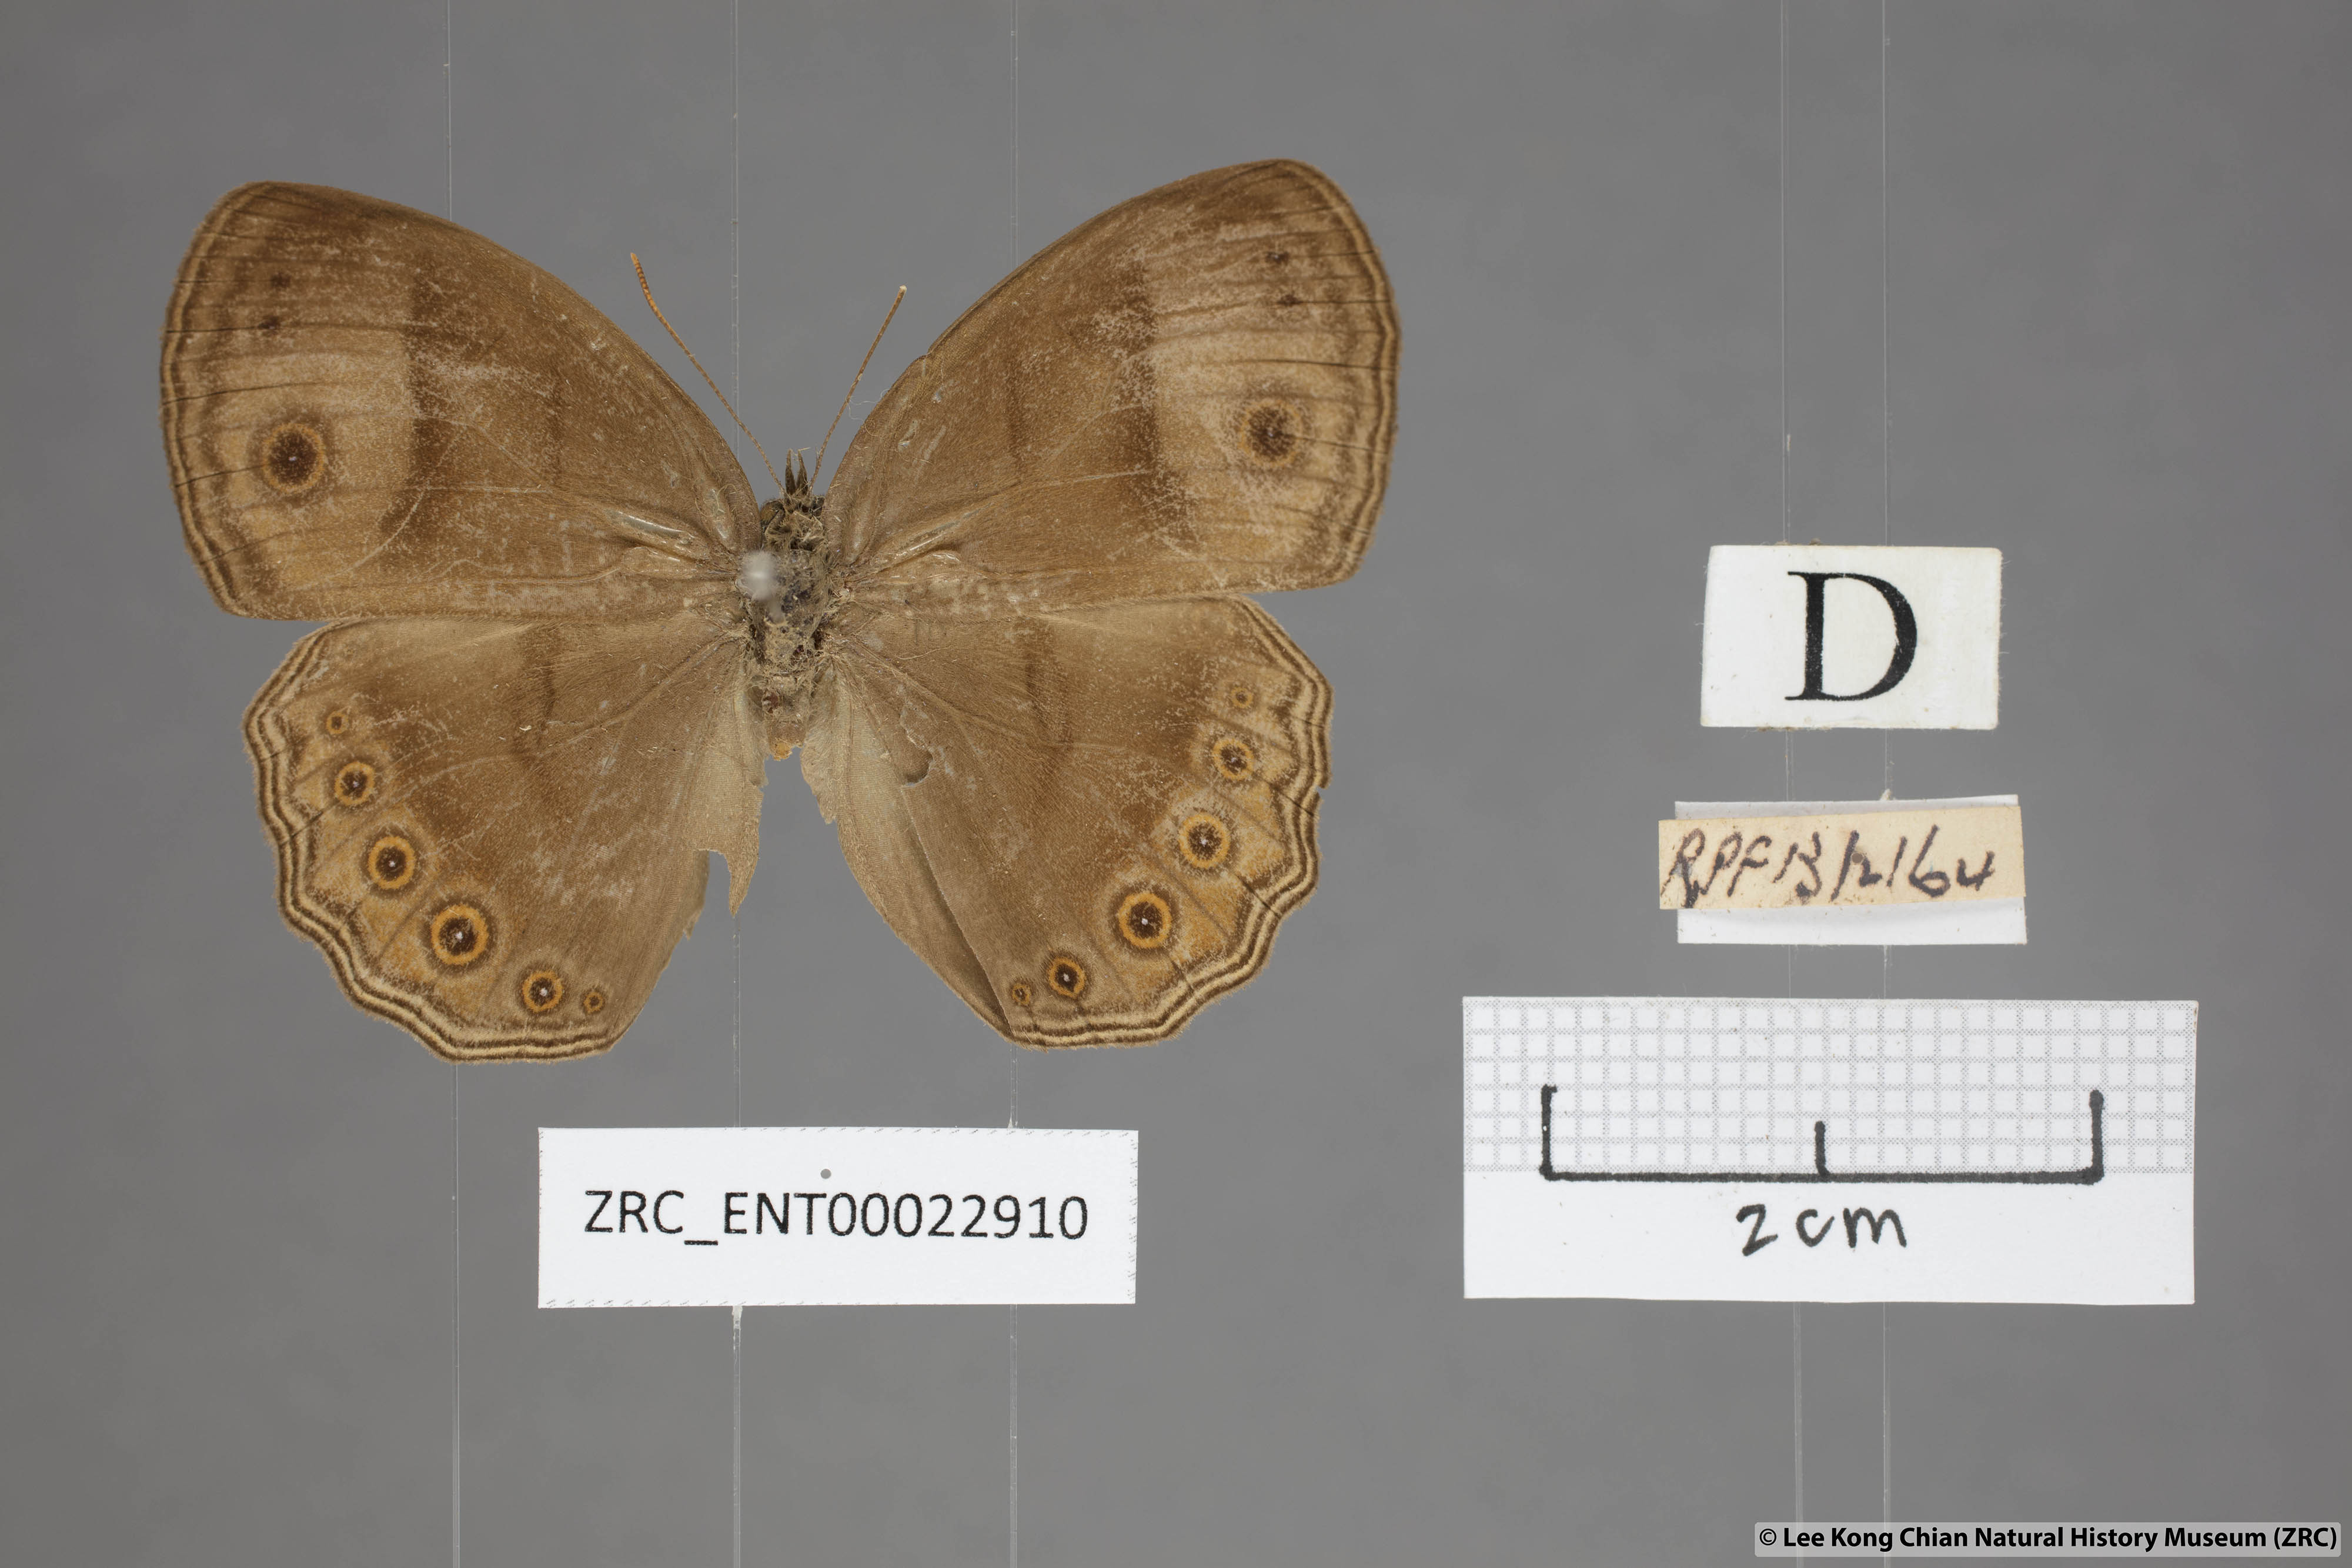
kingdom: Animalia
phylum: Arthropoda
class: Insecta
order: Lepidoptera
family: Nymphalidae
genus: Mycalesis
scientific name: Mycalesis fuscum
